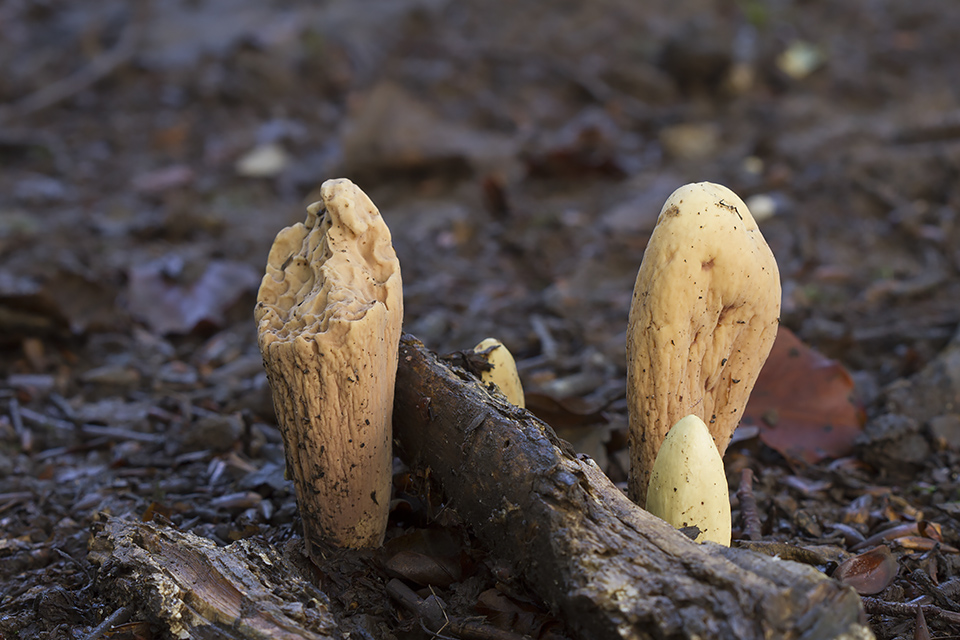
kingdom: Fungi
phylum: Basidiomycota
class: Agaricomycetes
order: Gomphales
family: Clavariadelphaceae
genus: Clavariadelphus
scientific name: Clavariadelphus pistillaris
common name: herkules-kæmpekølle
